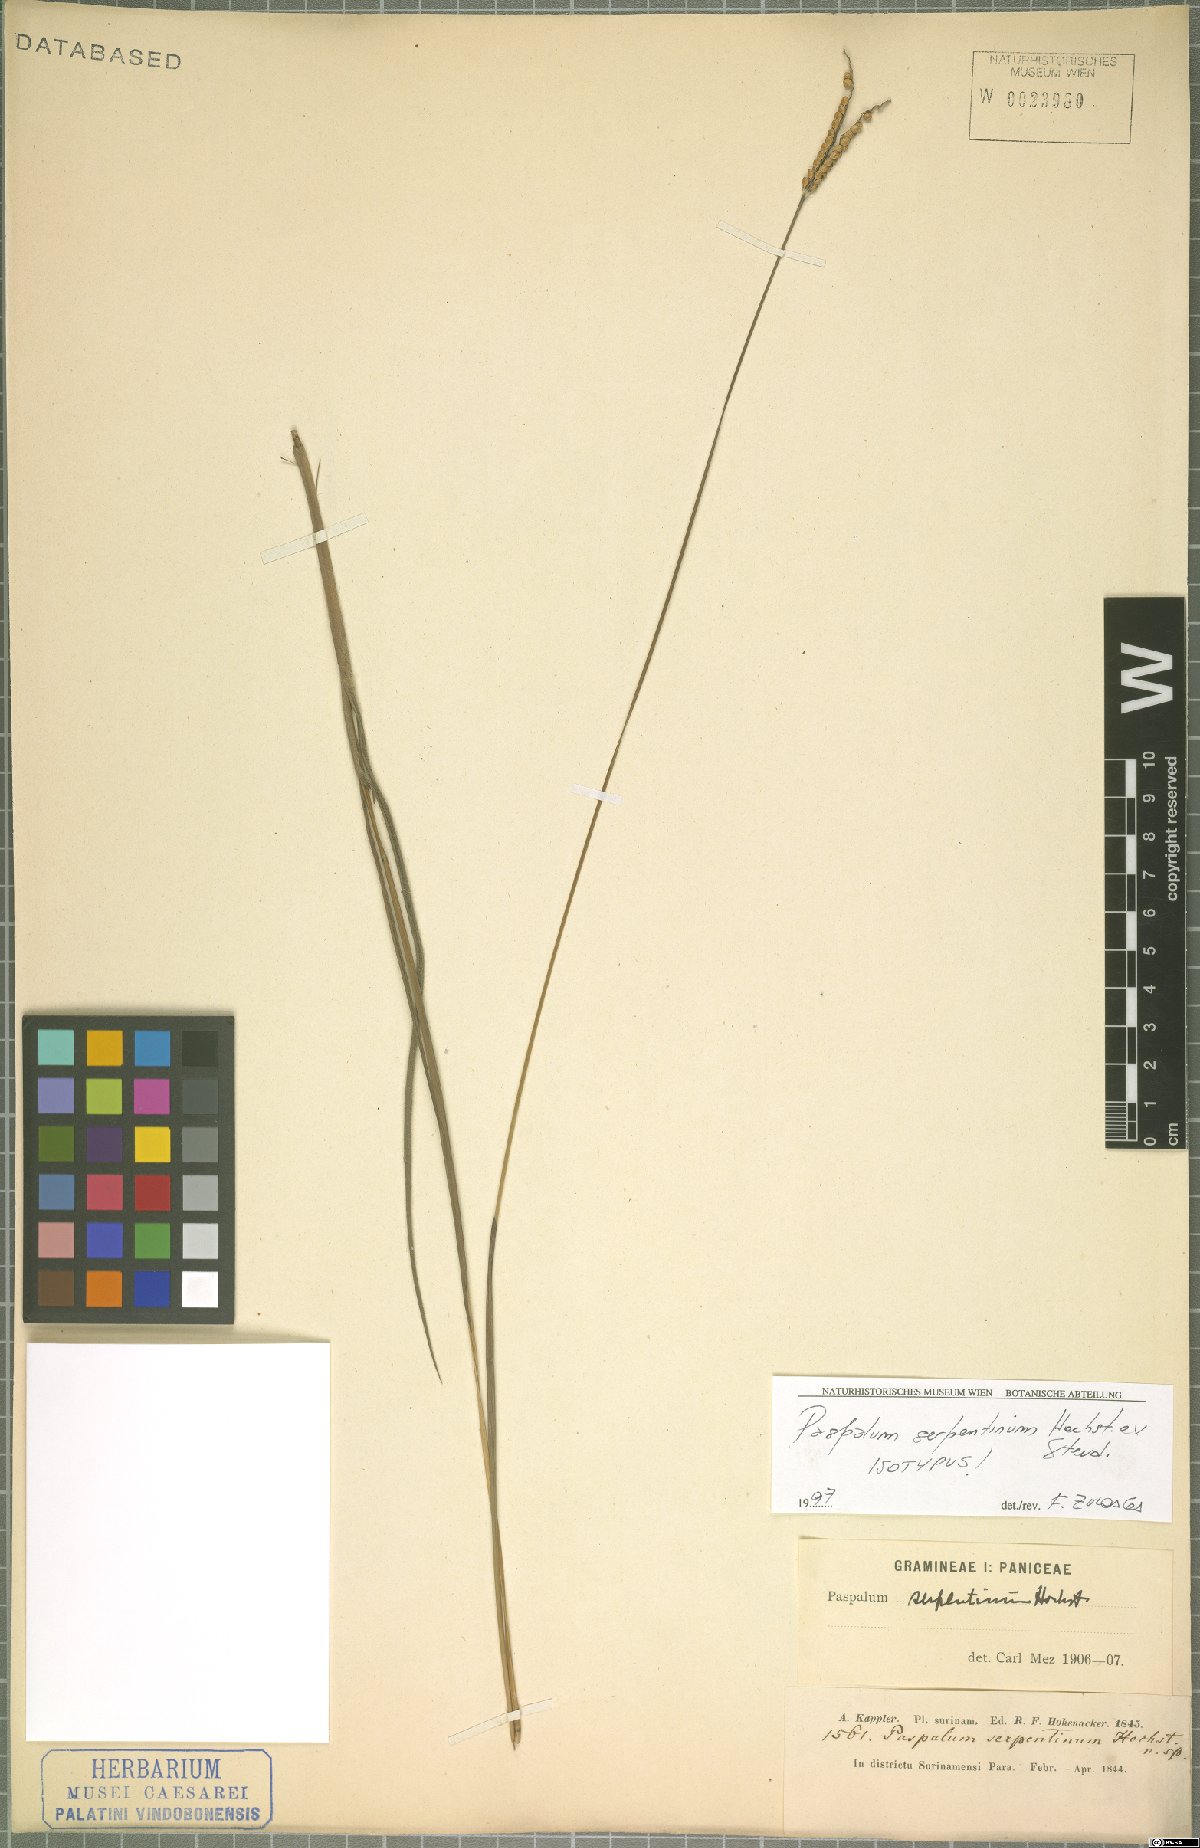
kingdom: Plantae
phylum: Tracheophyta
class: Liliopsida
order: Poales
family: Poaceae
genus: Paspalum
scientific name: Paspalum serpentinum
